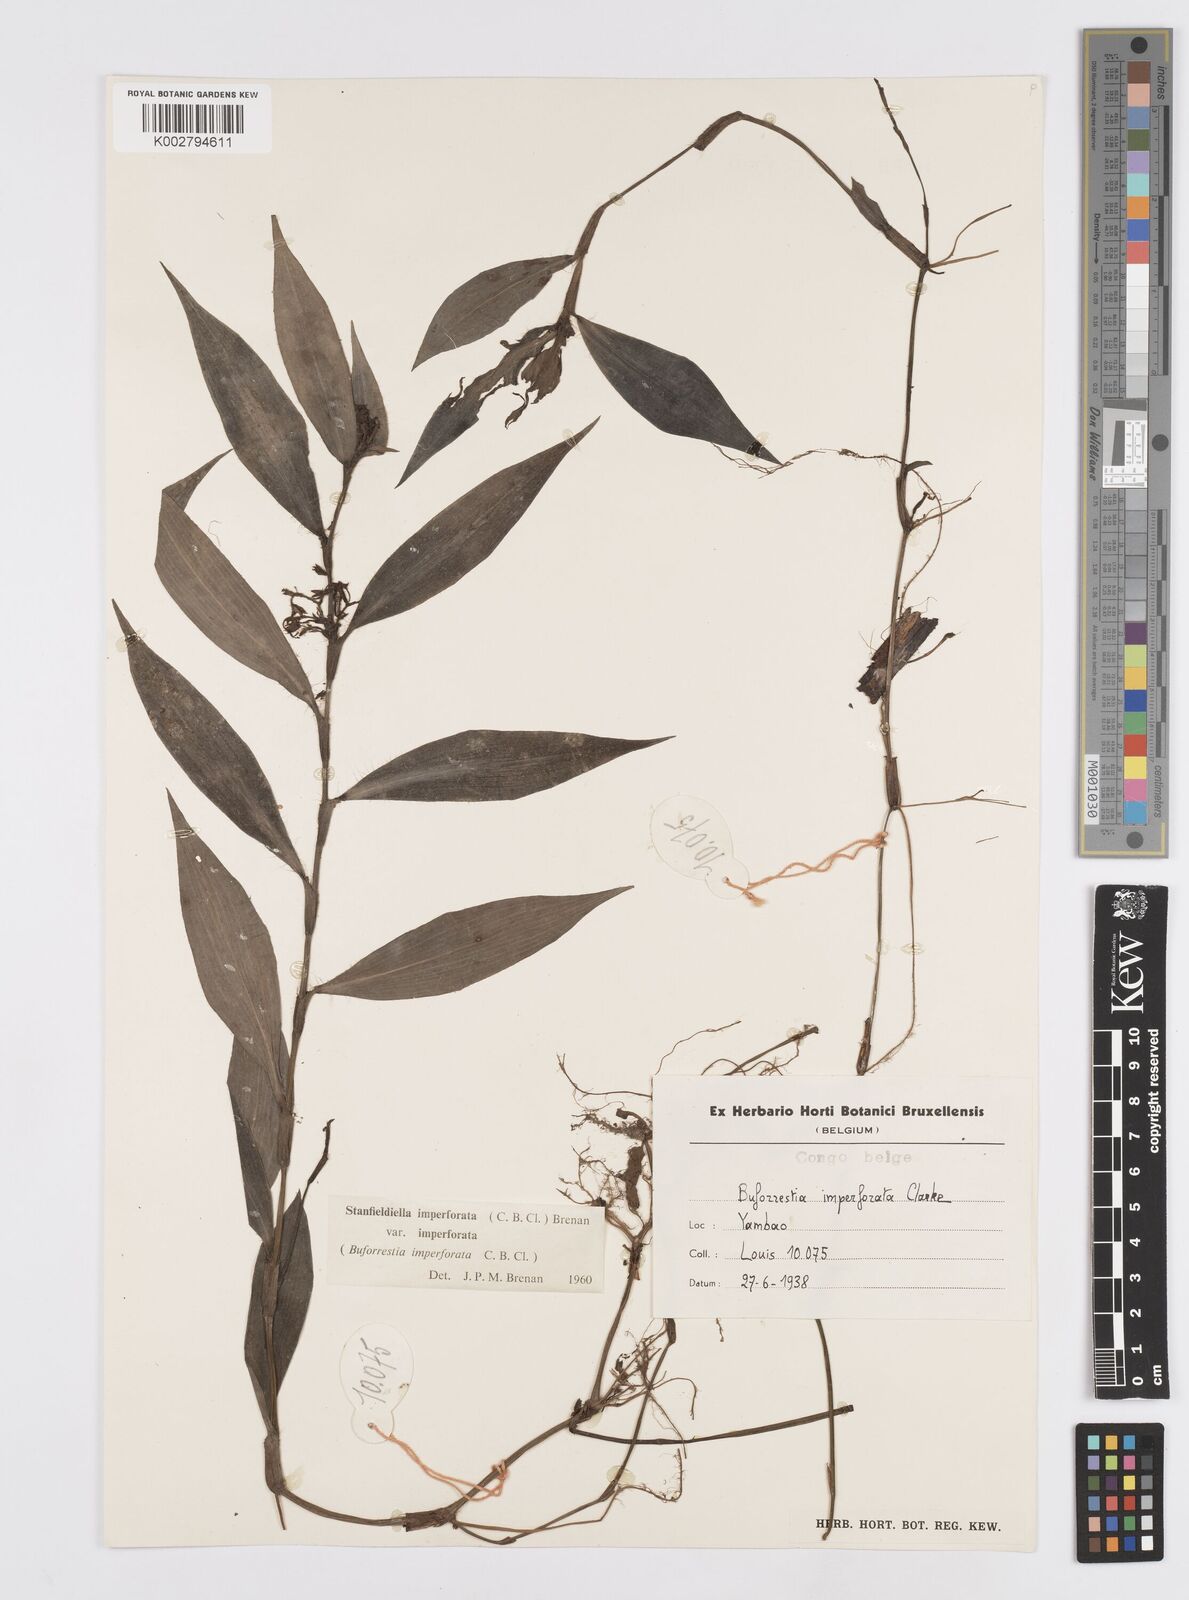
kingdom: Plantae
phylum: Tracheophyta
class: Liliopsida
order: Commelinales
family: Commelinaceae
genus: Stanfieldiella
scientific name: Stanfieldiella imperforata
